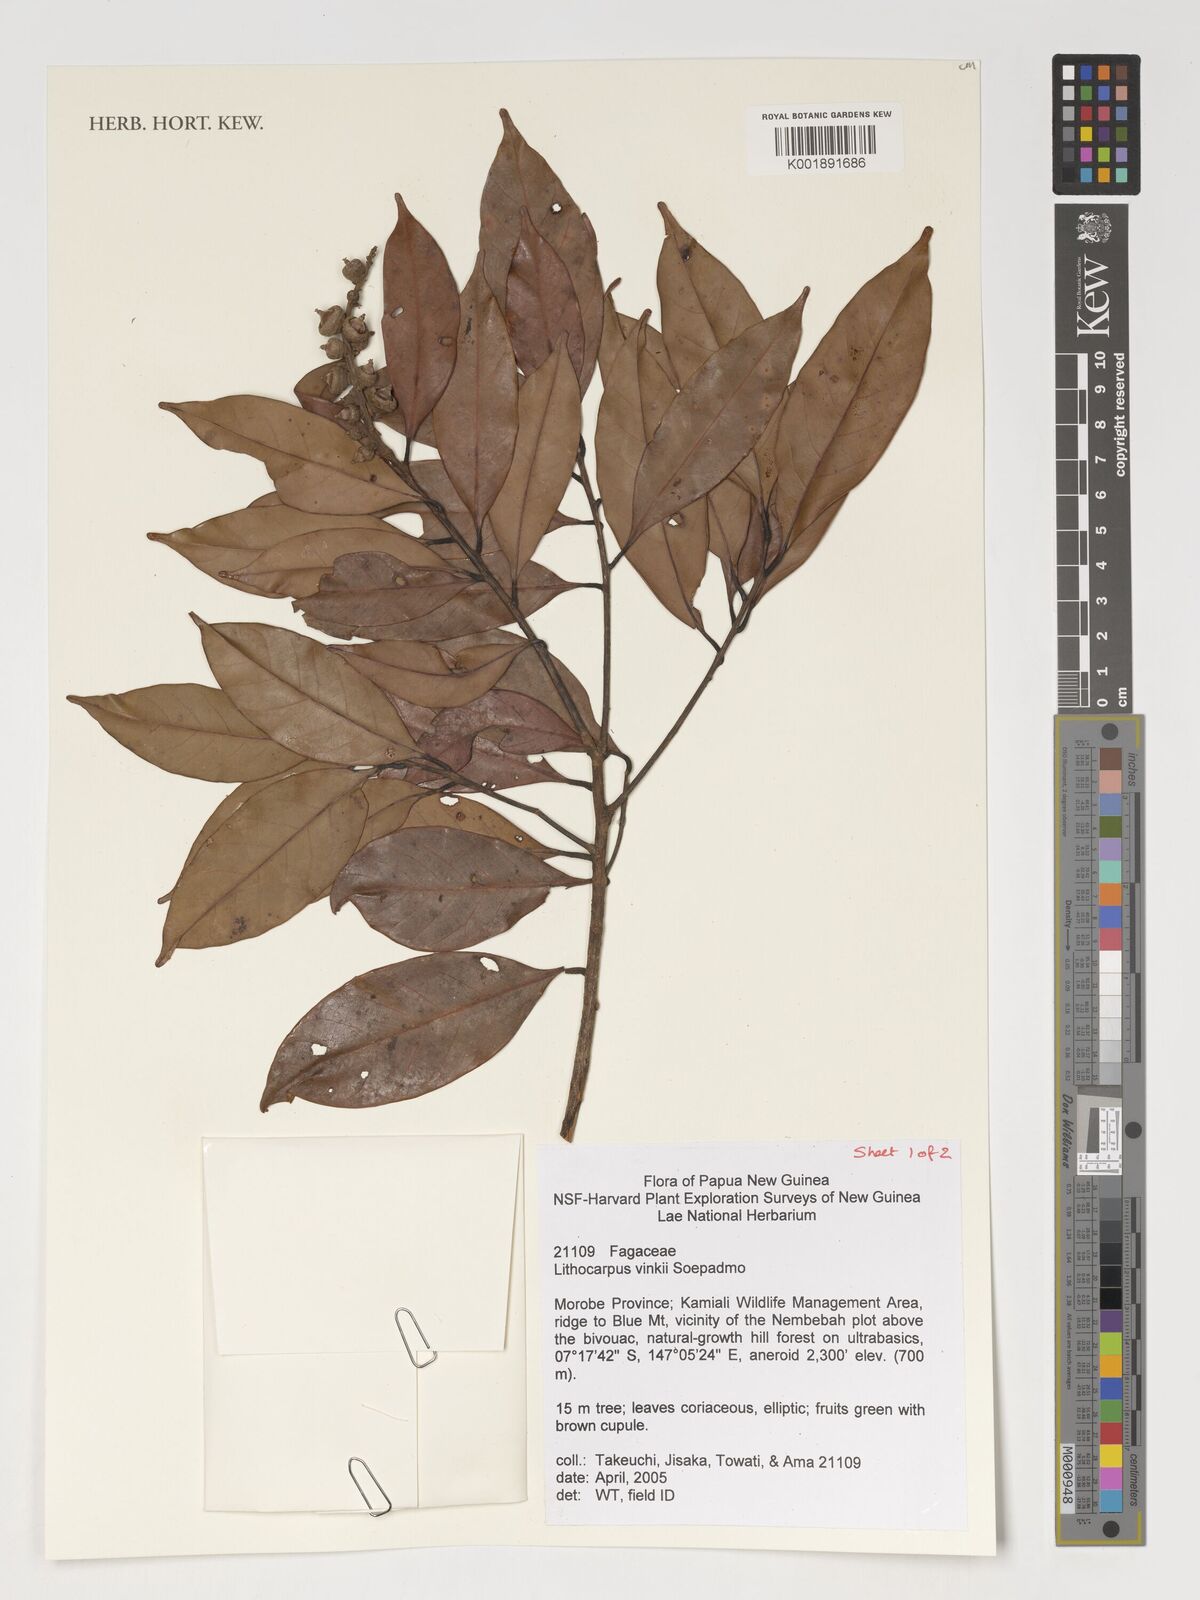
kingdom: Plantae
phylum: Tracheophyta
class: Magnoliopsida
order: Fagales
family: Fagaceae
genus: Lithocarpus
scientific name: Lithocarpus vinkii
